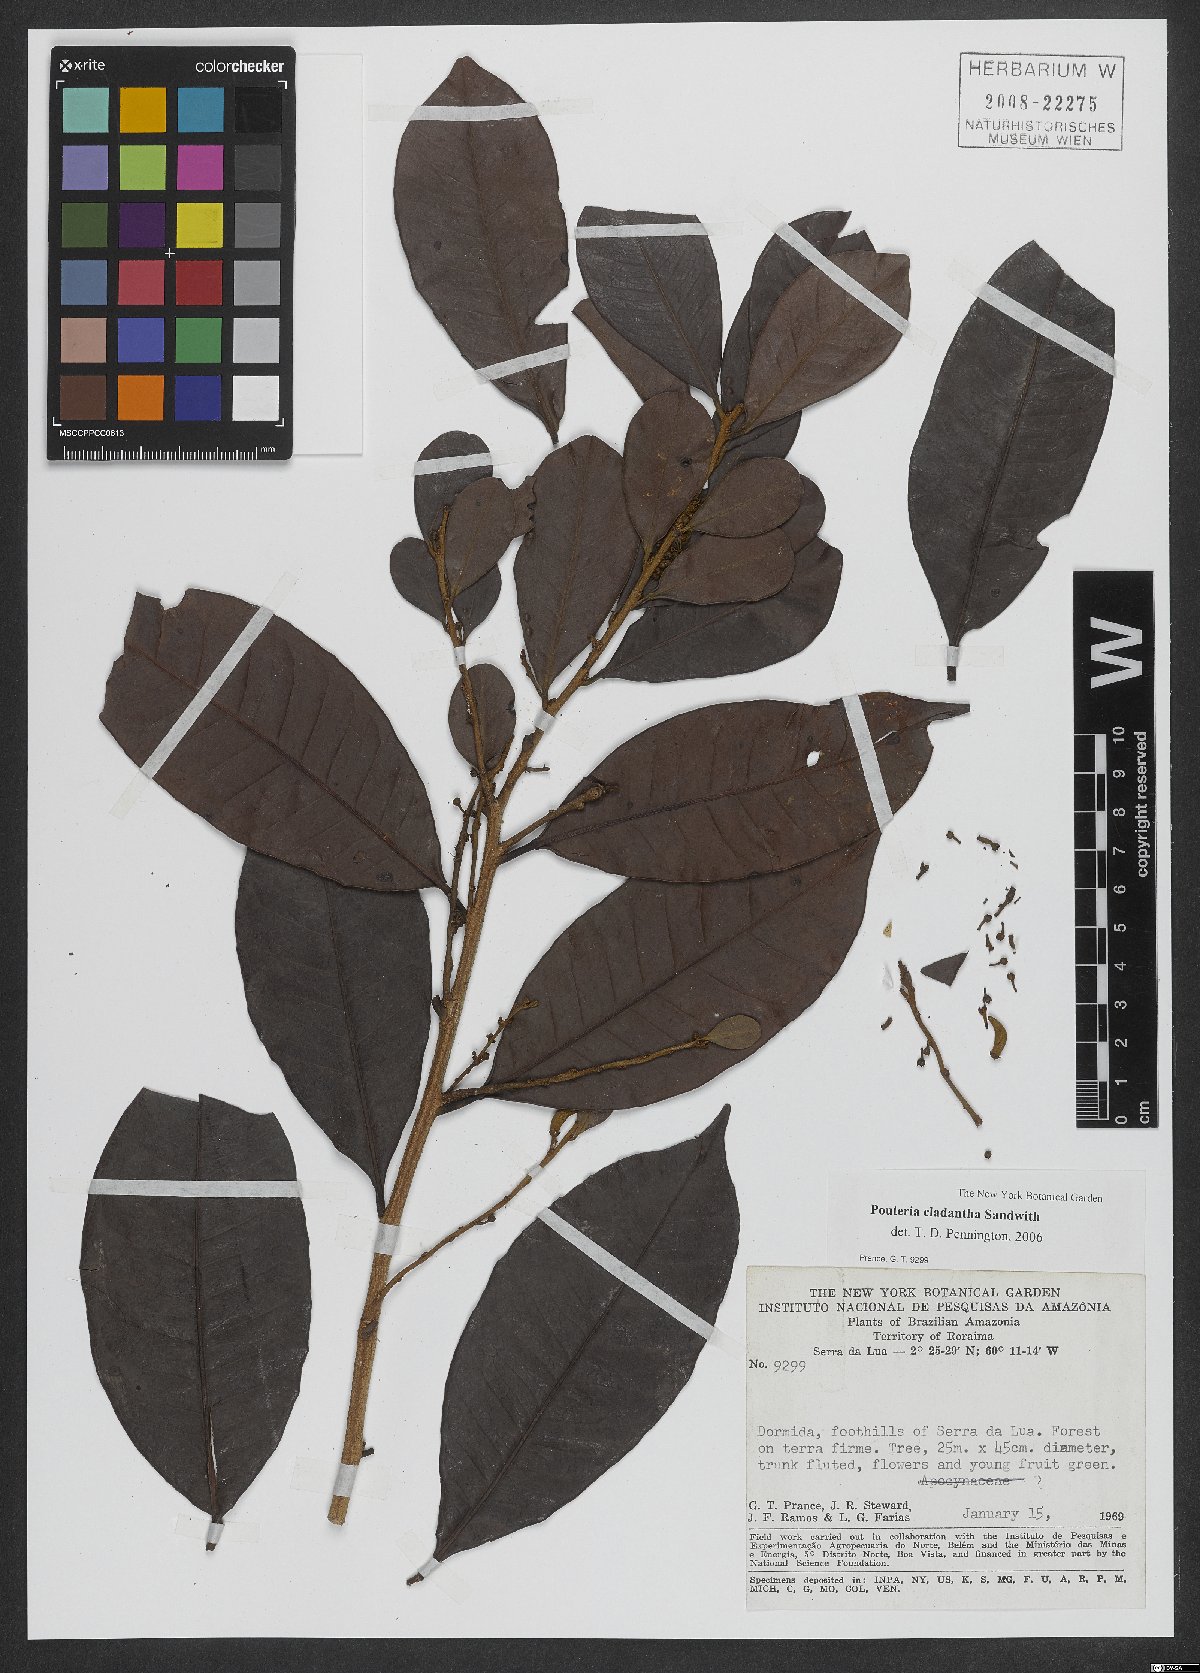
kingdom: Plantae
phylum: Tracheophyta
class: Magnoliopsida
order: Ericales
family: Sapotaceae
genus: Pouteria
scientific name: Pouteria cladantha
